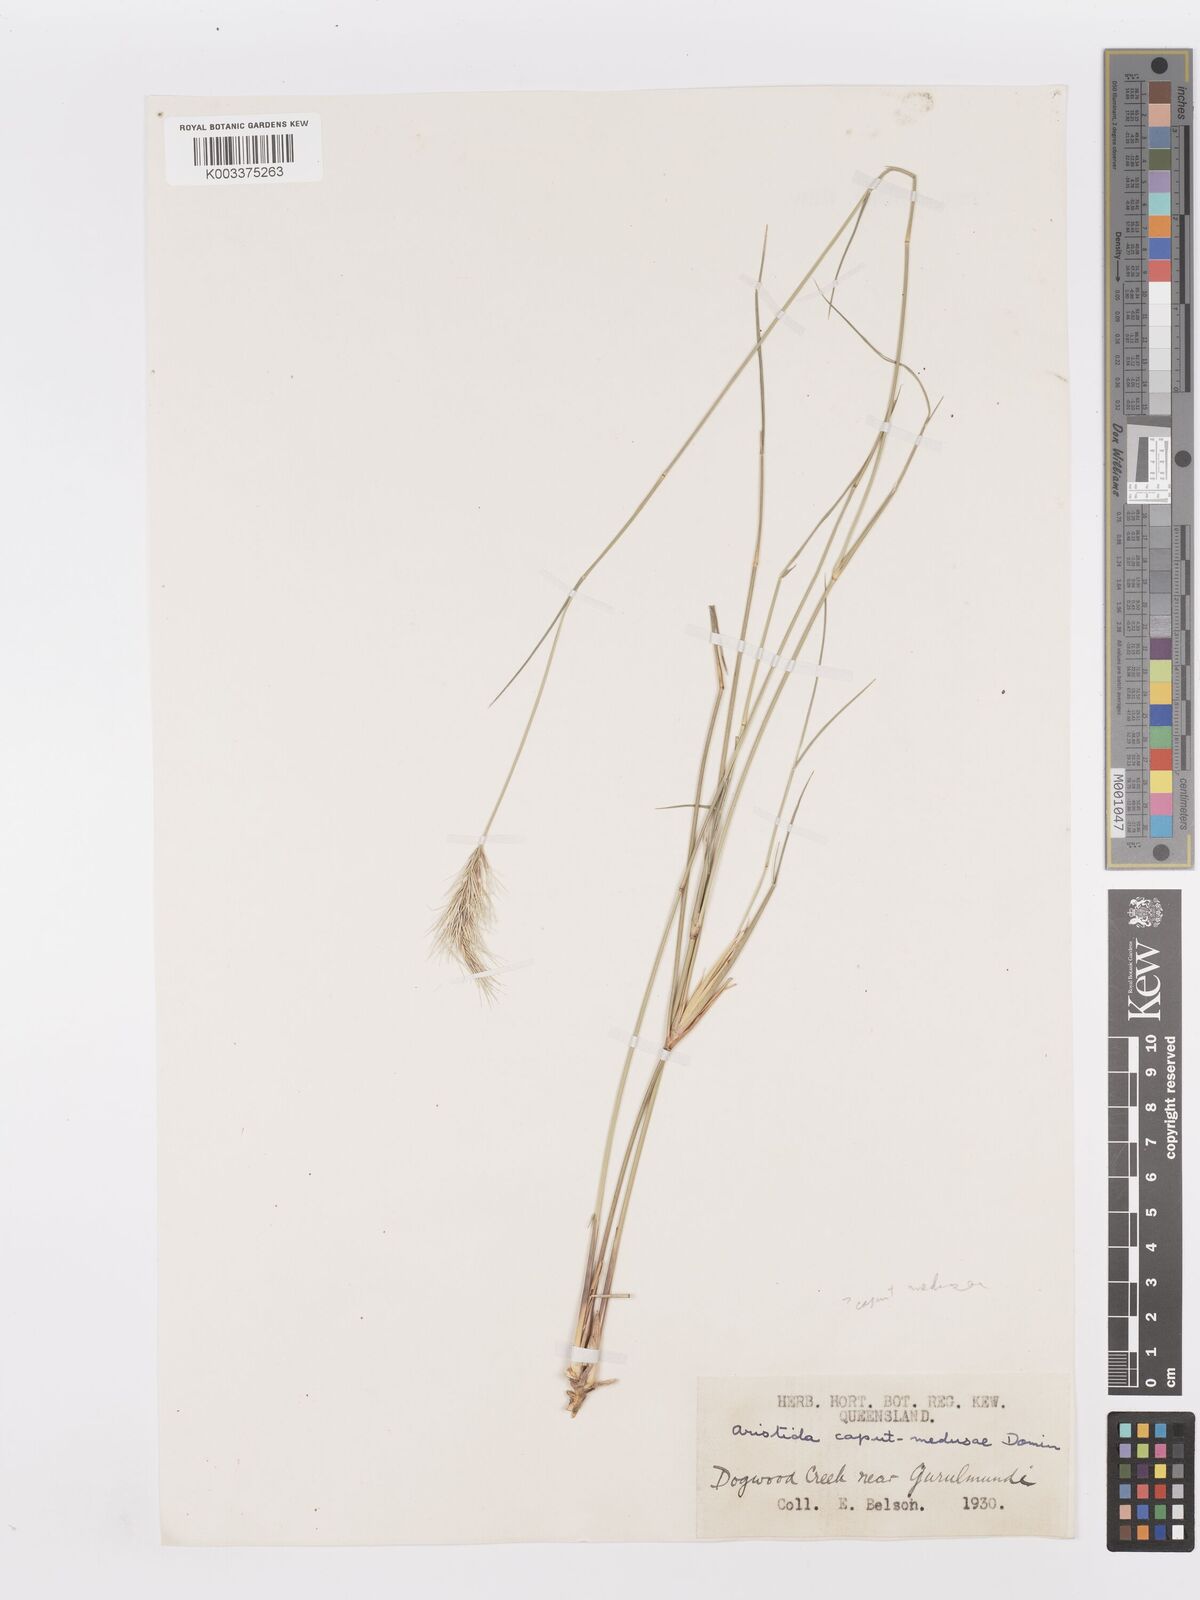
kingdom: Plantae
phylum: Tracheophyta
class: Liliopsida
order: Poales
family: Poaceae
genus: Aristida
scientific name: Aristida caput-medusae
